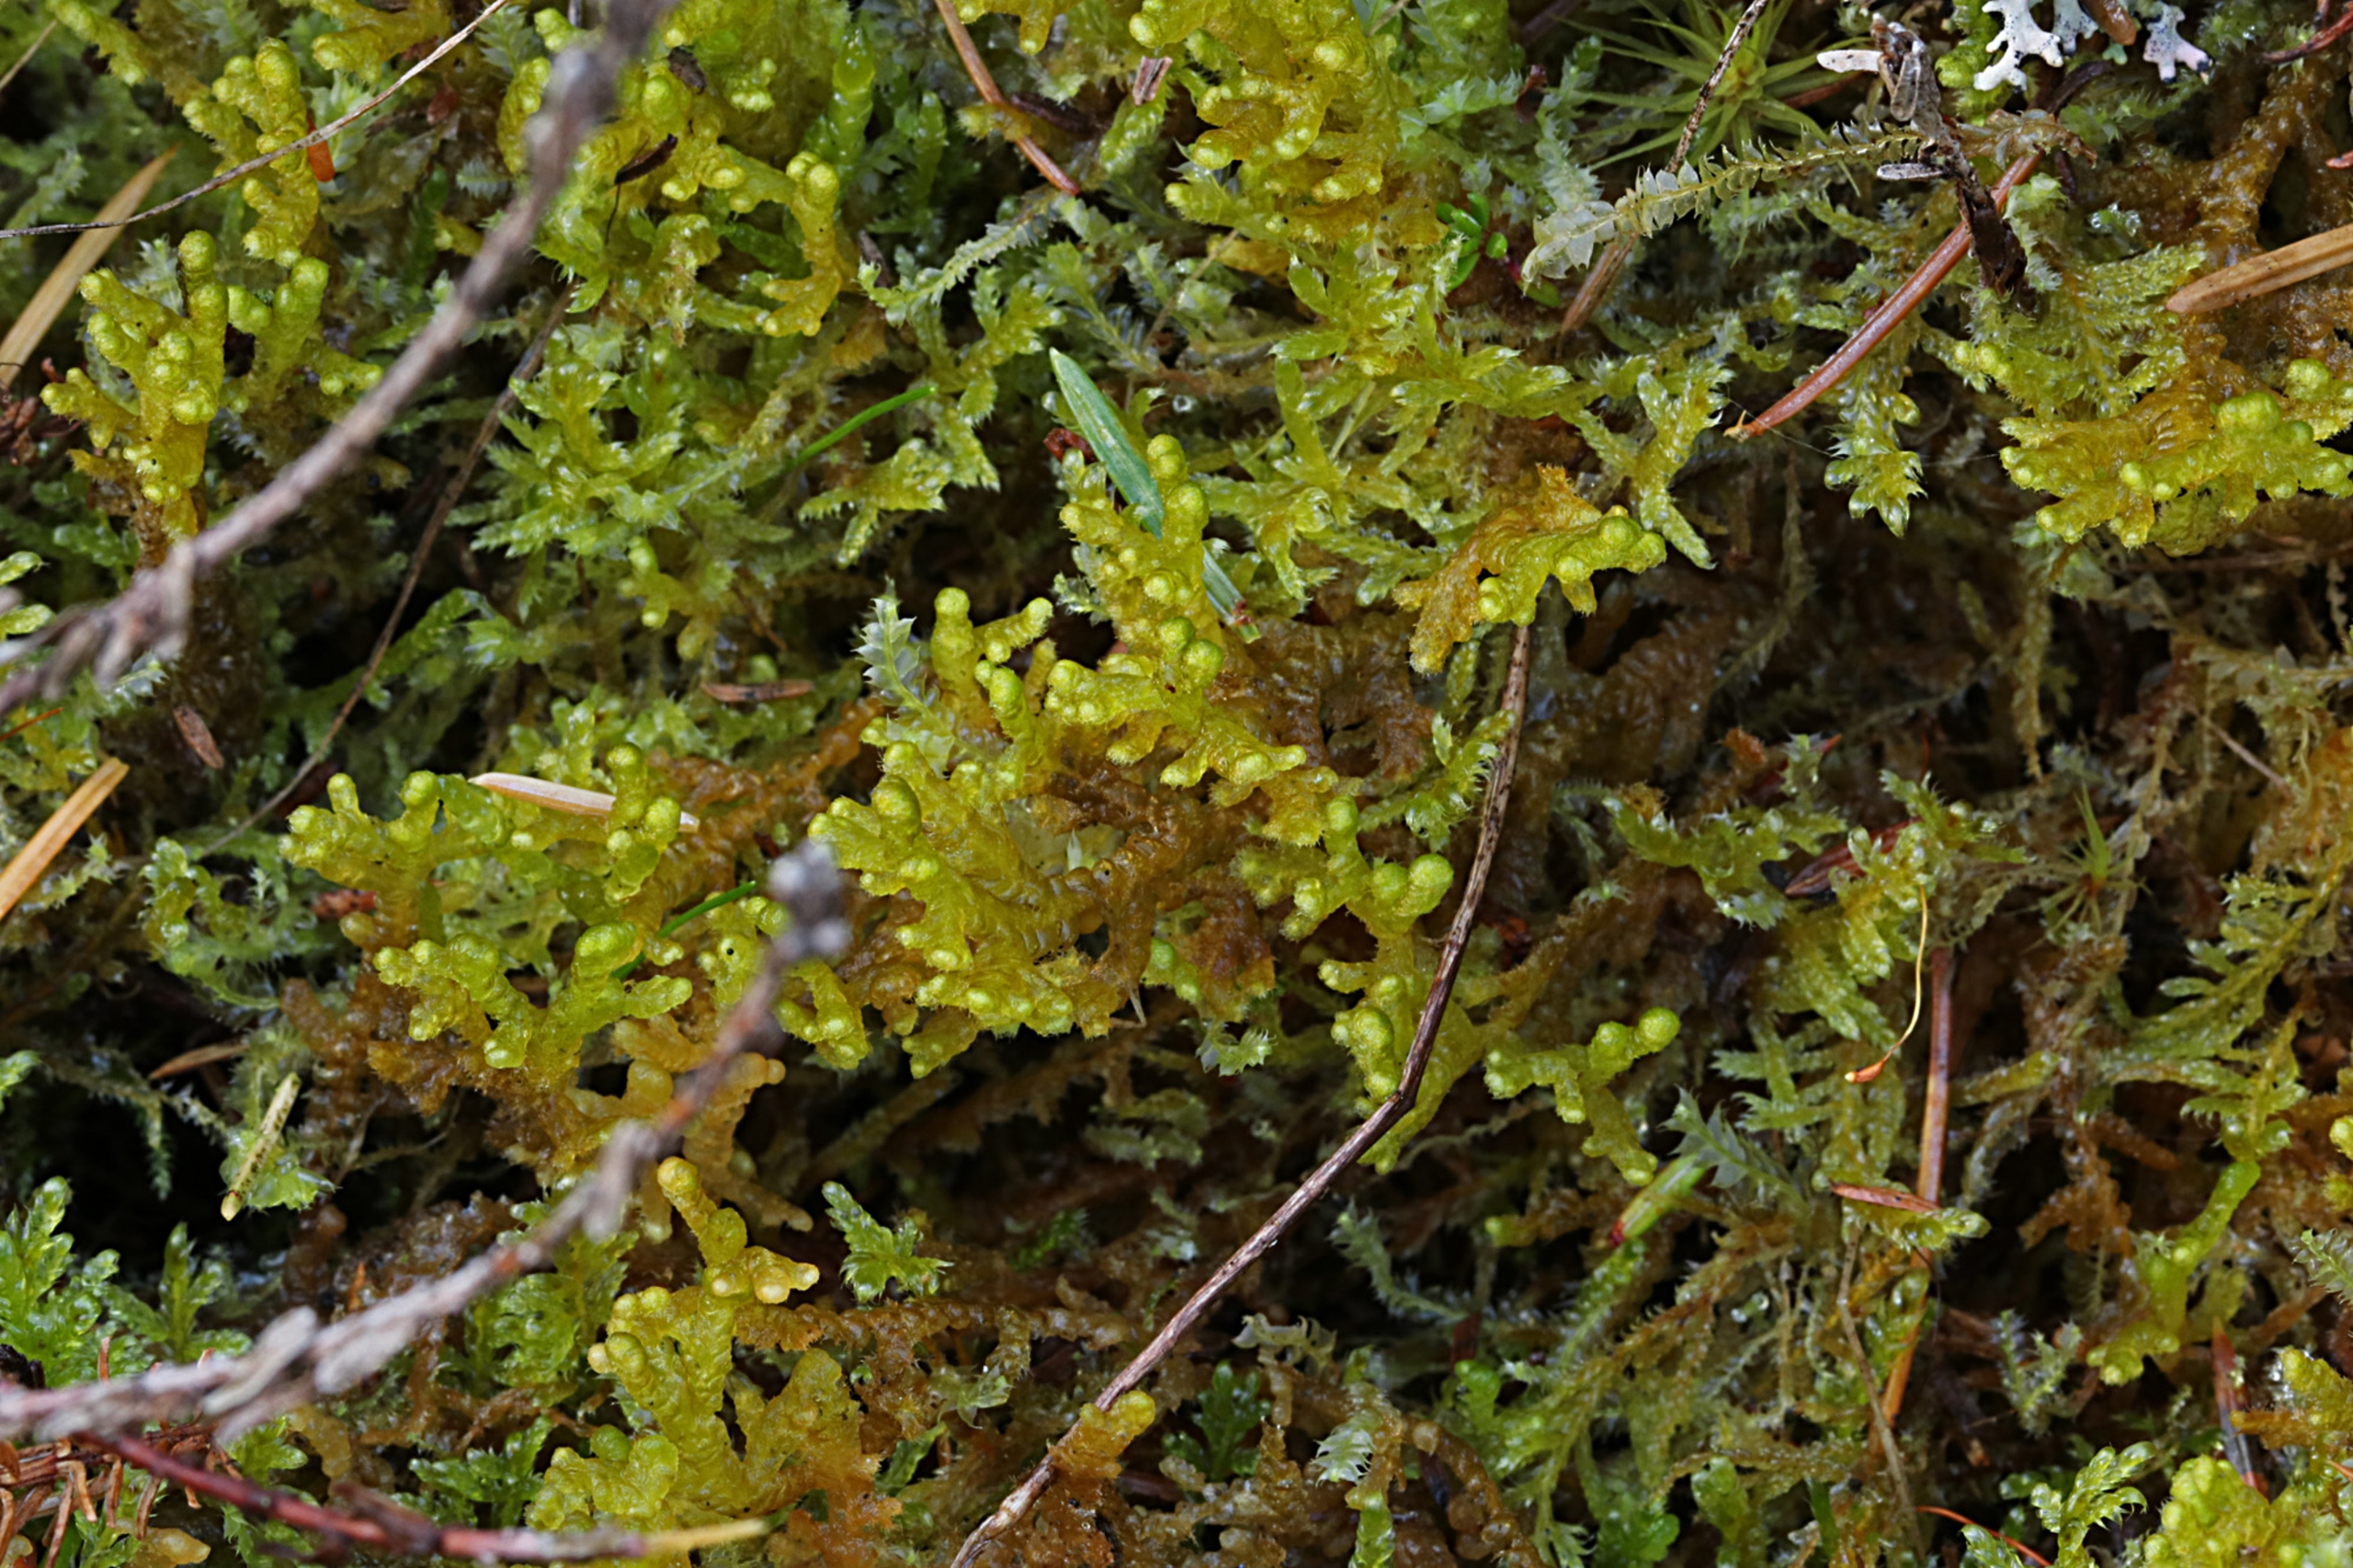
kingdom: Plantae
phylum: Marchantiophyta
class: Jungermanniopsida
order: Ptilidiales
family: Ptilidiaceae
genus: Ptilidium
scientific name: Ptilidium ciliare
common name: Almindelig frynsemos
